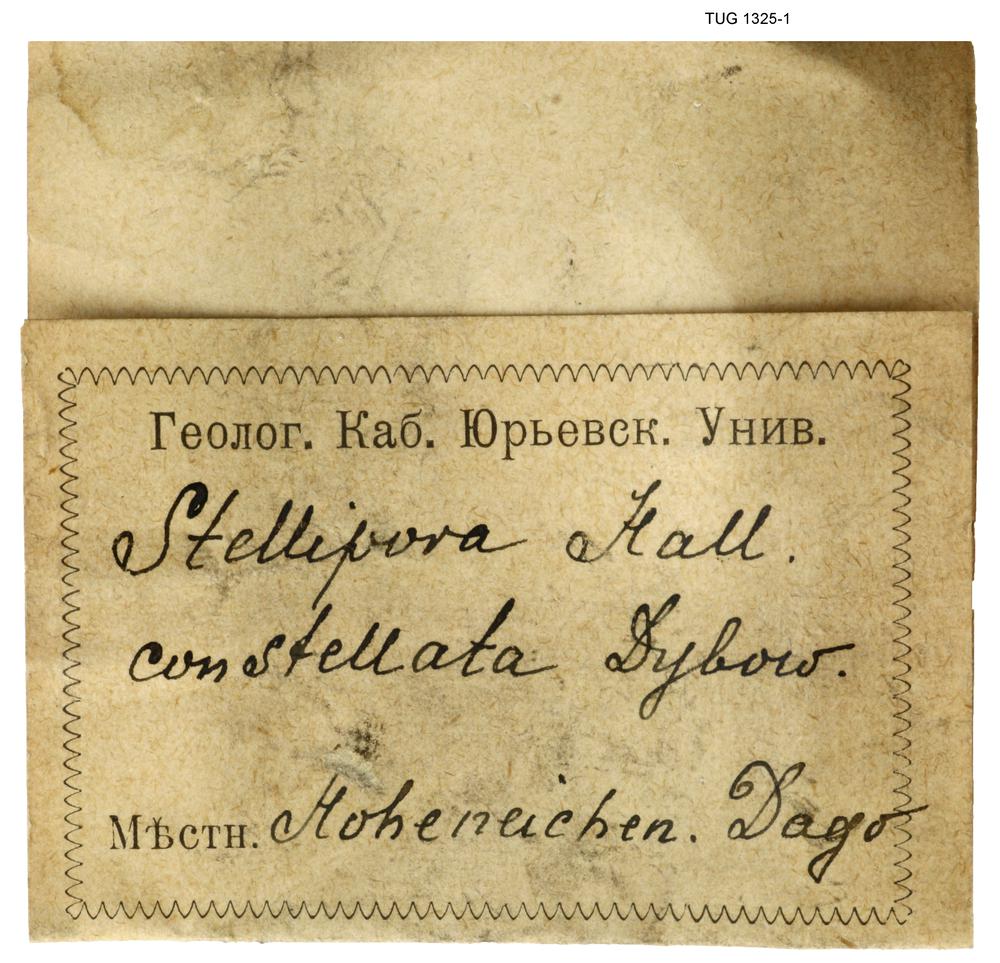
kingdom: Animalia
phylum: Bryozoa
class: Stenolaemata
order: Cystoporida
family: Constellariidae
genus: Constellaria
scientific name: Constellaria Stellipora constellata
